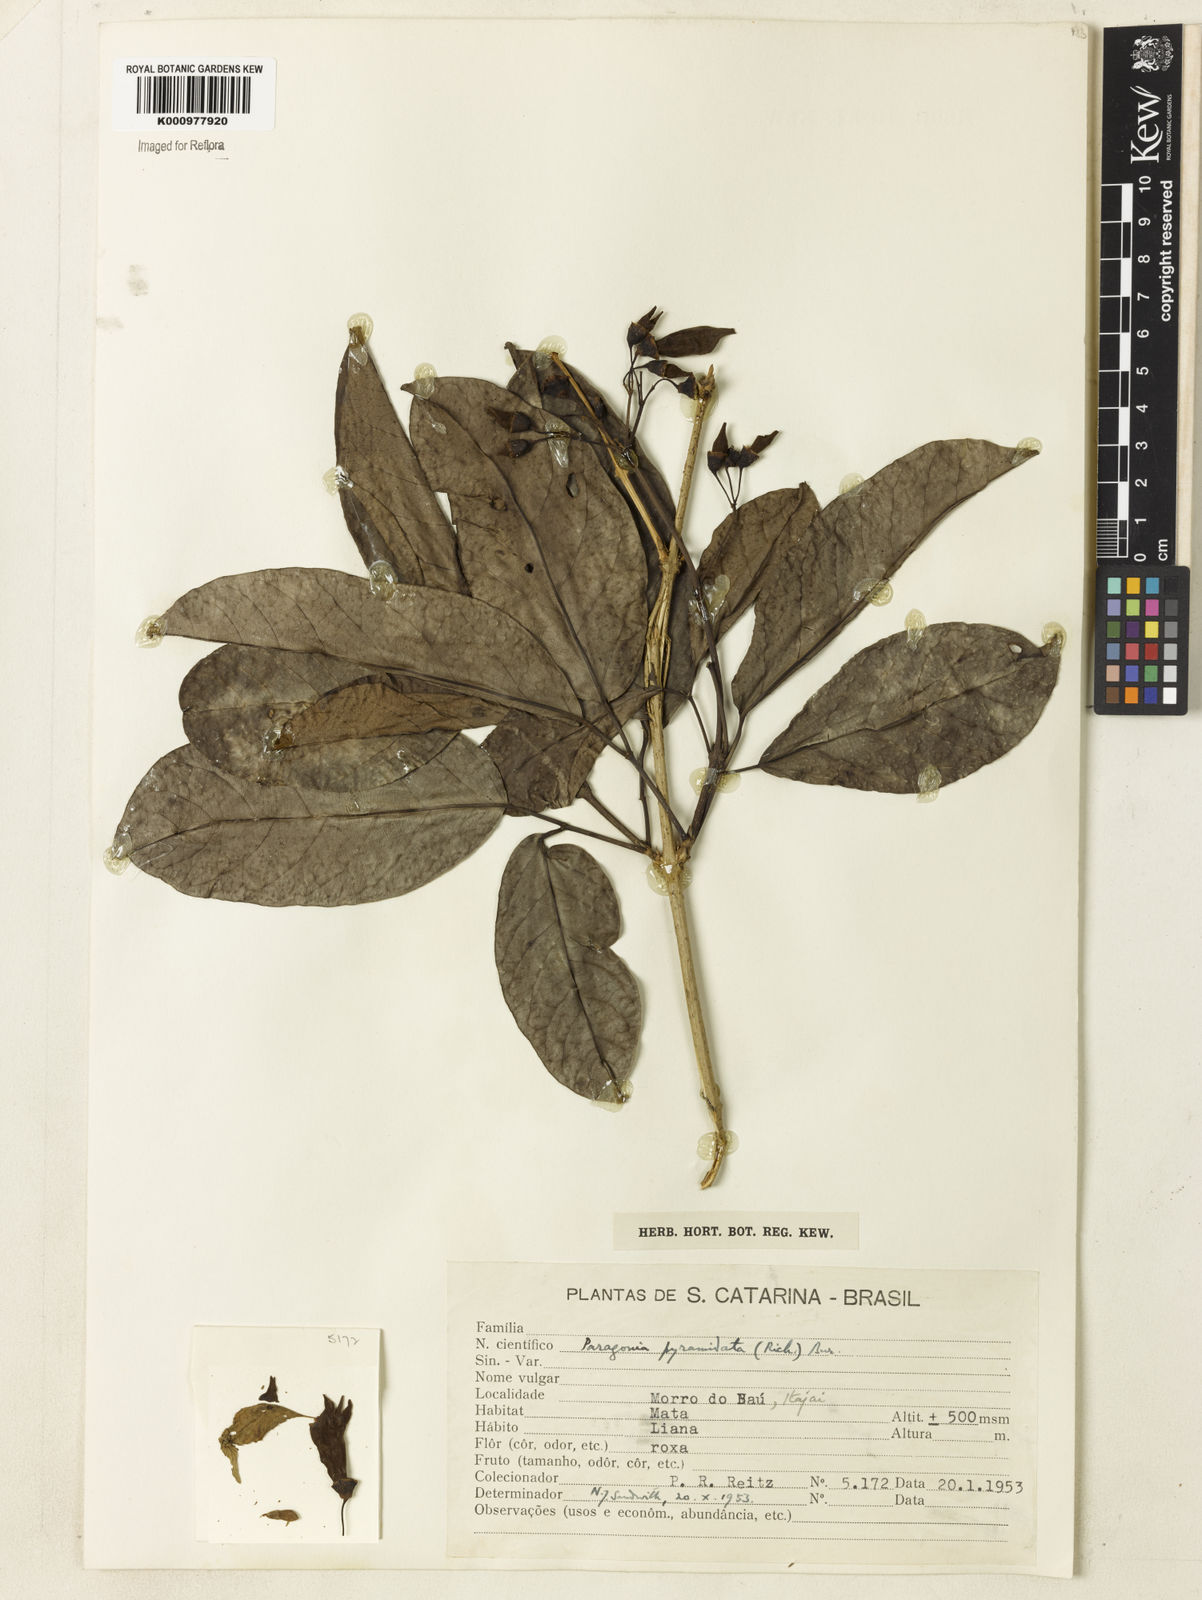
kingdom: Plantae
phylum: Tracheophyta
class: Magnoliopsida
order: Lamiales
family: Bignoniaceae
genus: Tanaecium
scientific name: Tanaecium pyramidatum
